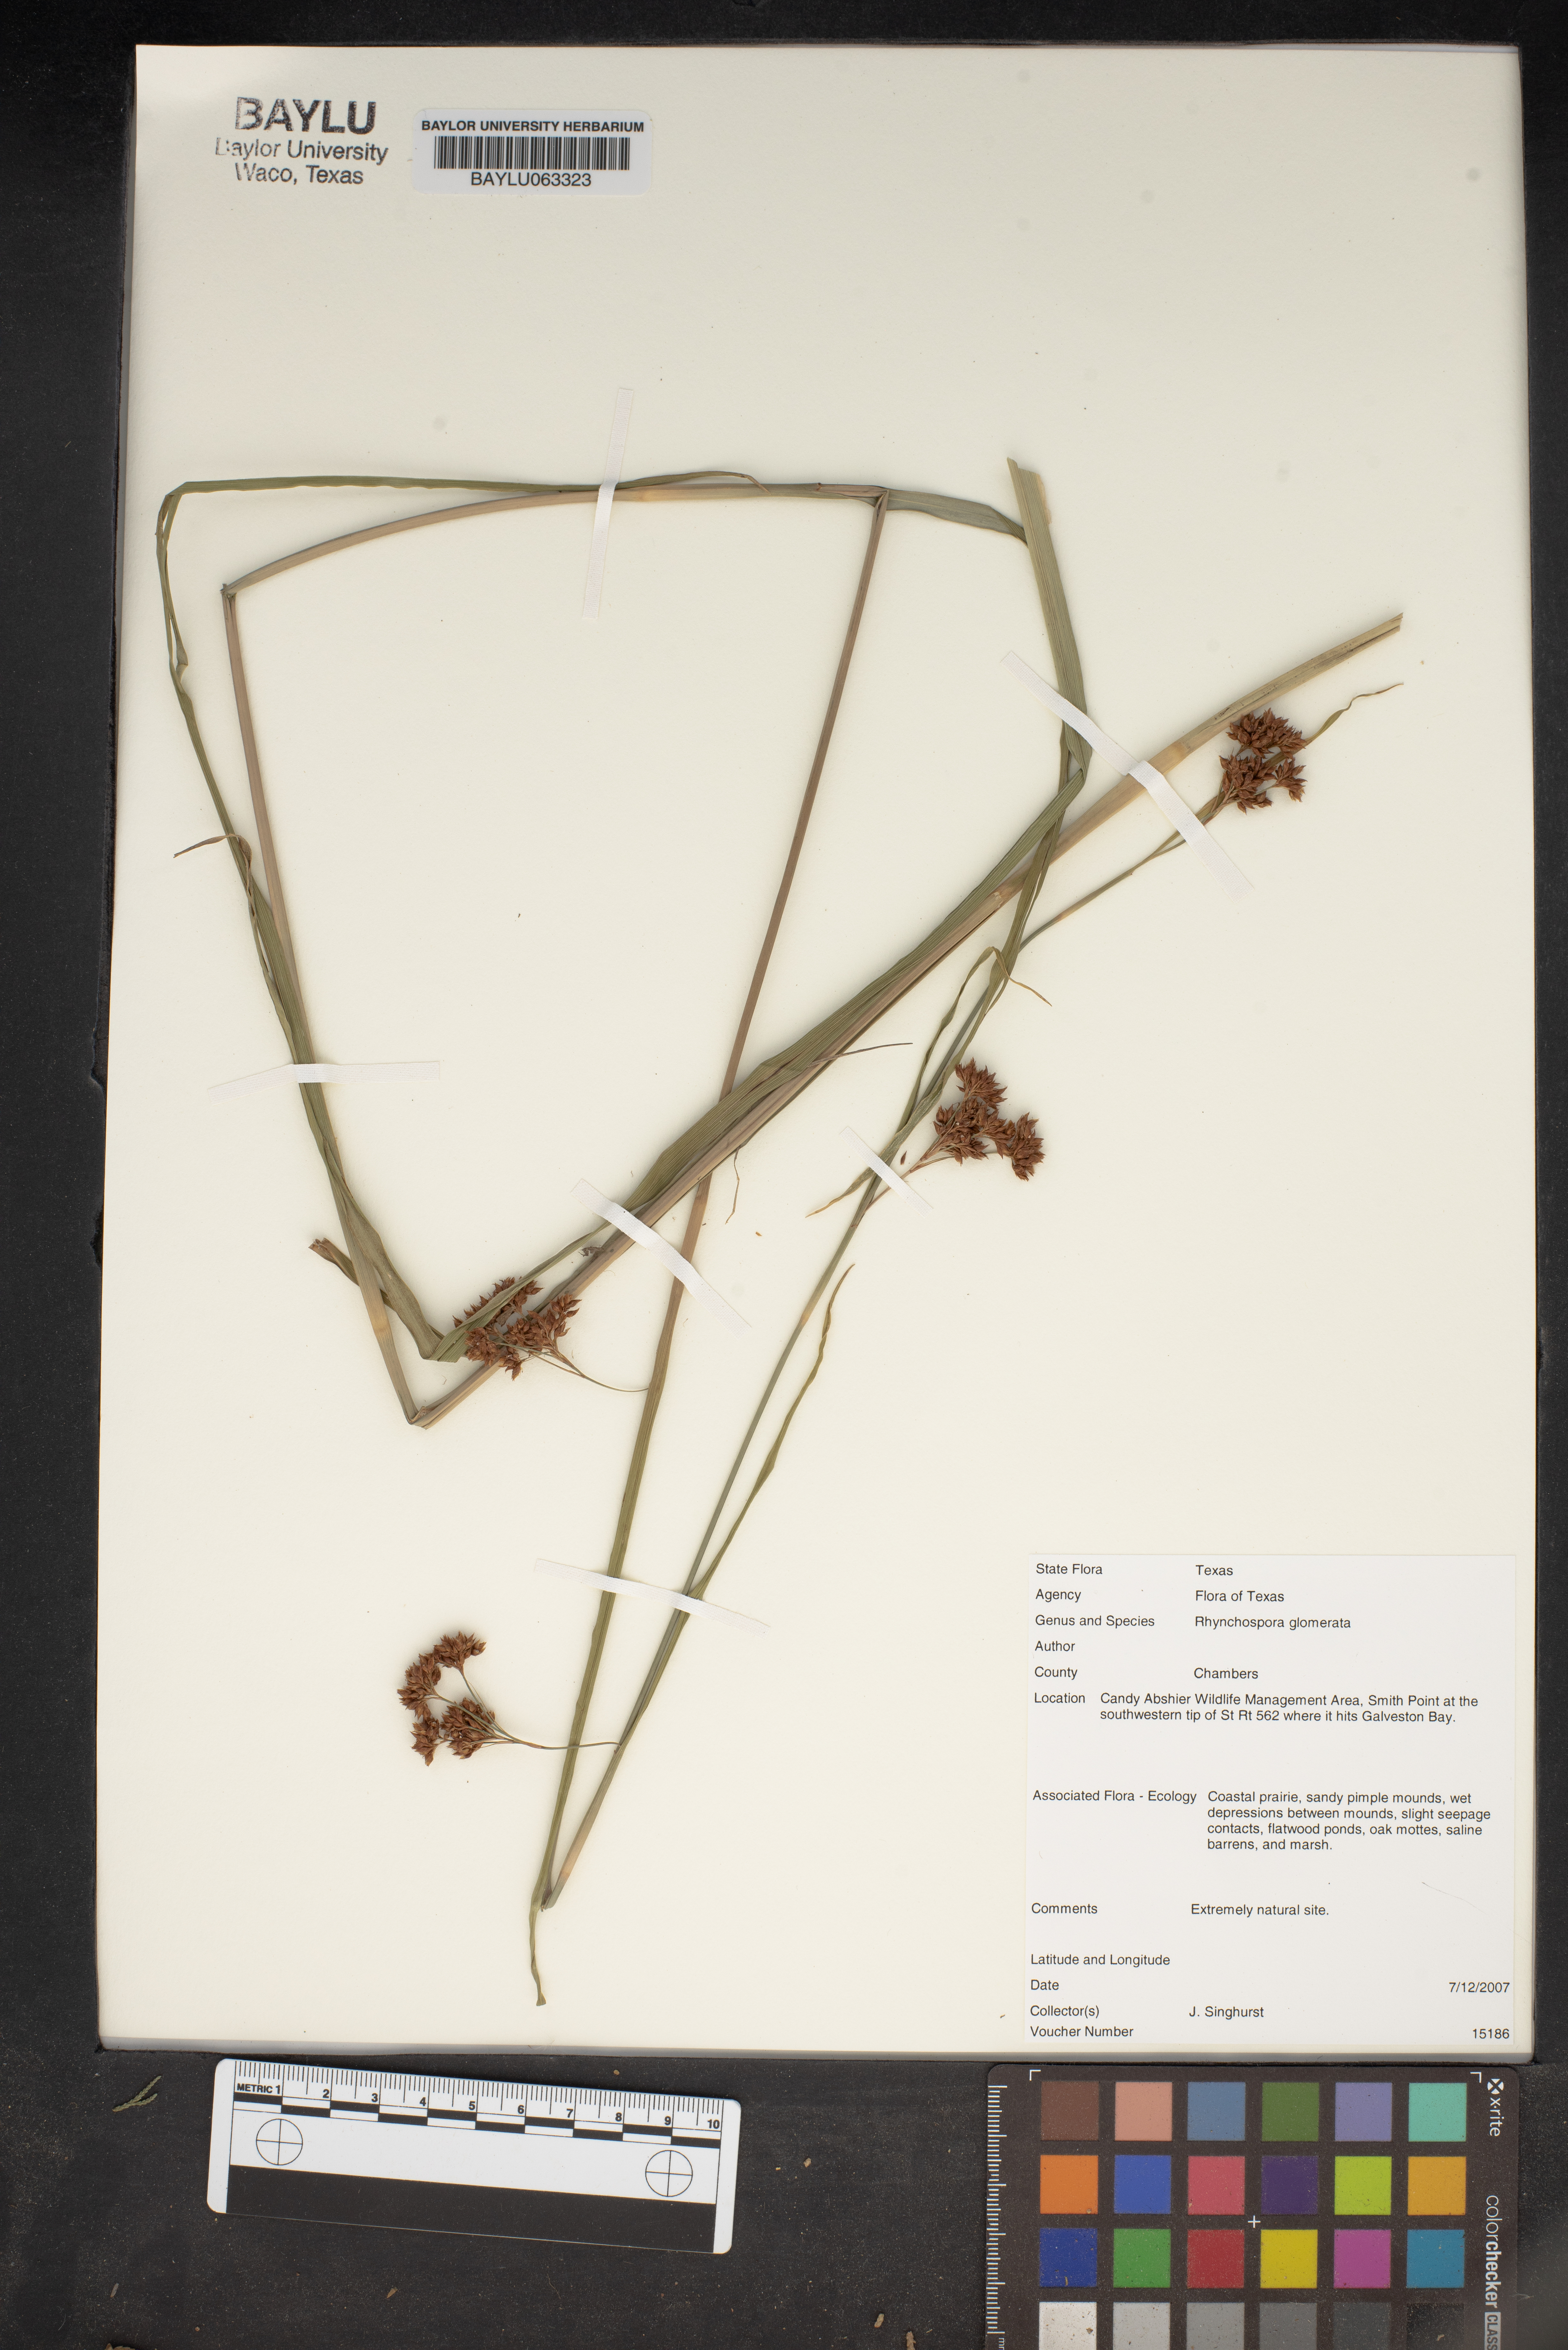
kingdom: Plantae
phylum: Tracheophyta
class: Liliopsida
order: Poales
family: Cyperaceae
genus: Rhynchospora
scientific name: Rhynchospora glomerata
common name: Cluster beak sedge
